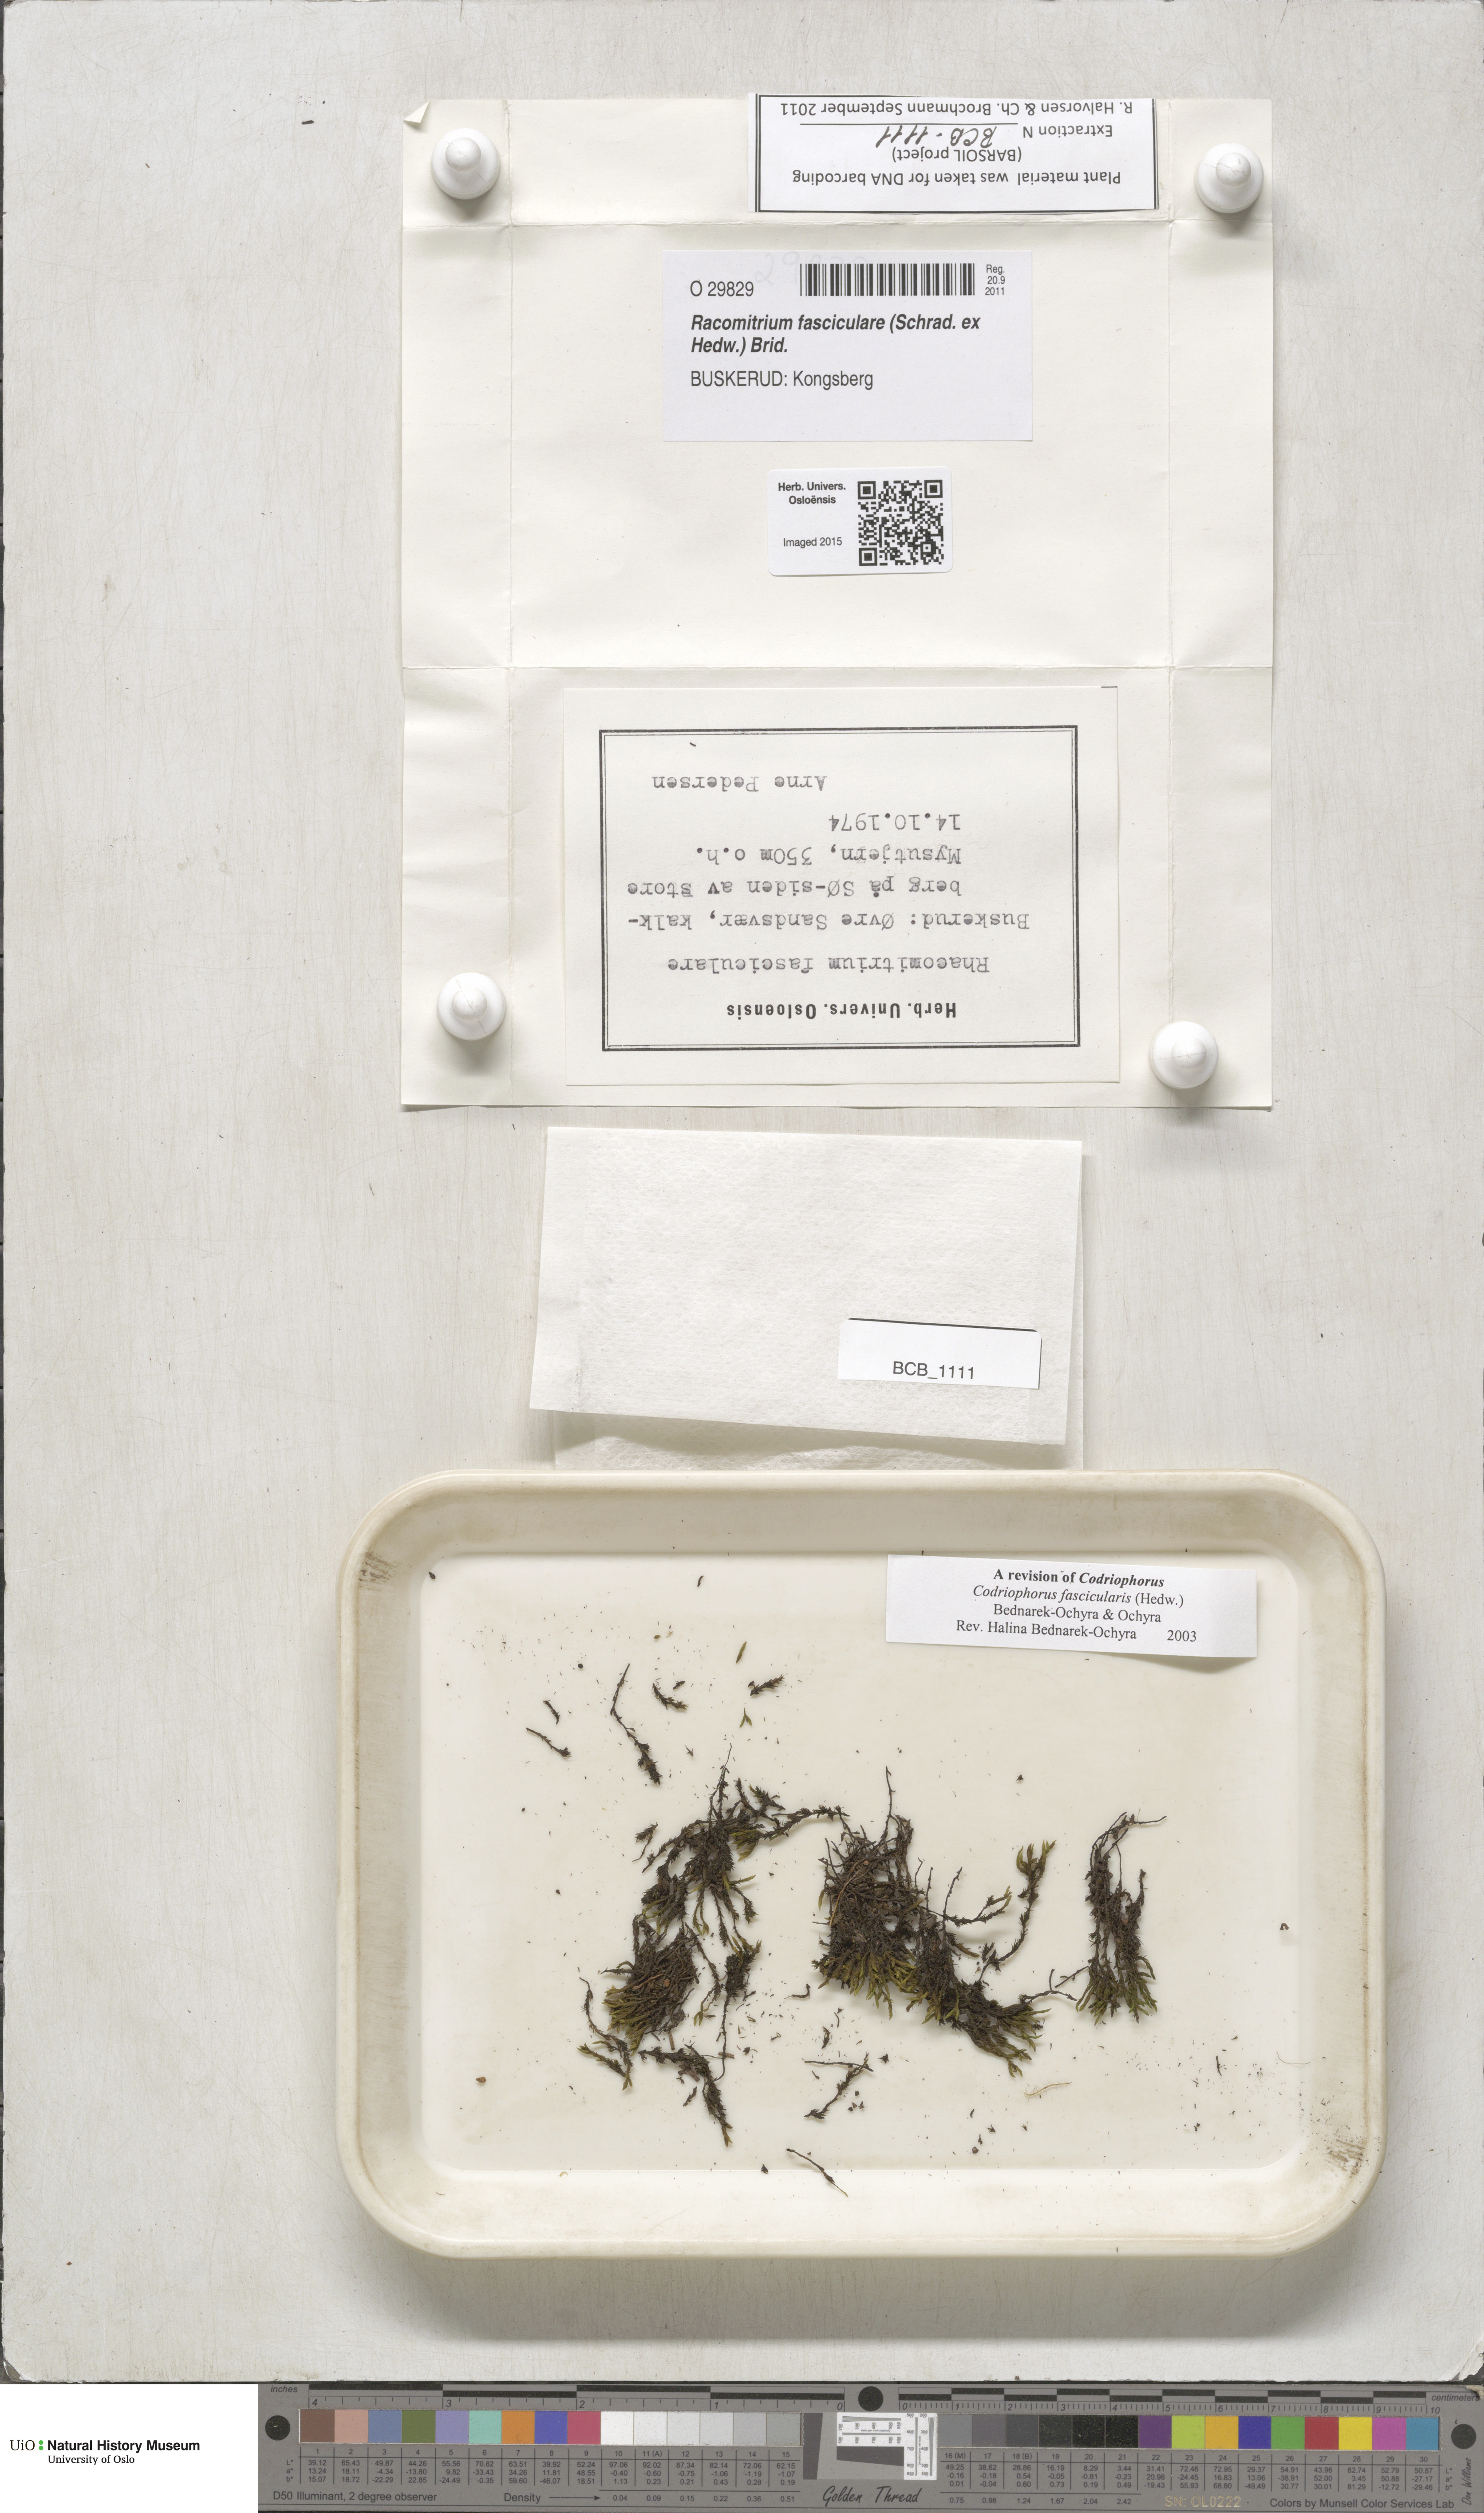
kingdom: Plantae
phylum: Bryophyta
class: Bryopsida
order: Grimmiales
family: Grimmiaceae
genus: Dilutineuron
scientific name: Dilutineuron fasciculare
